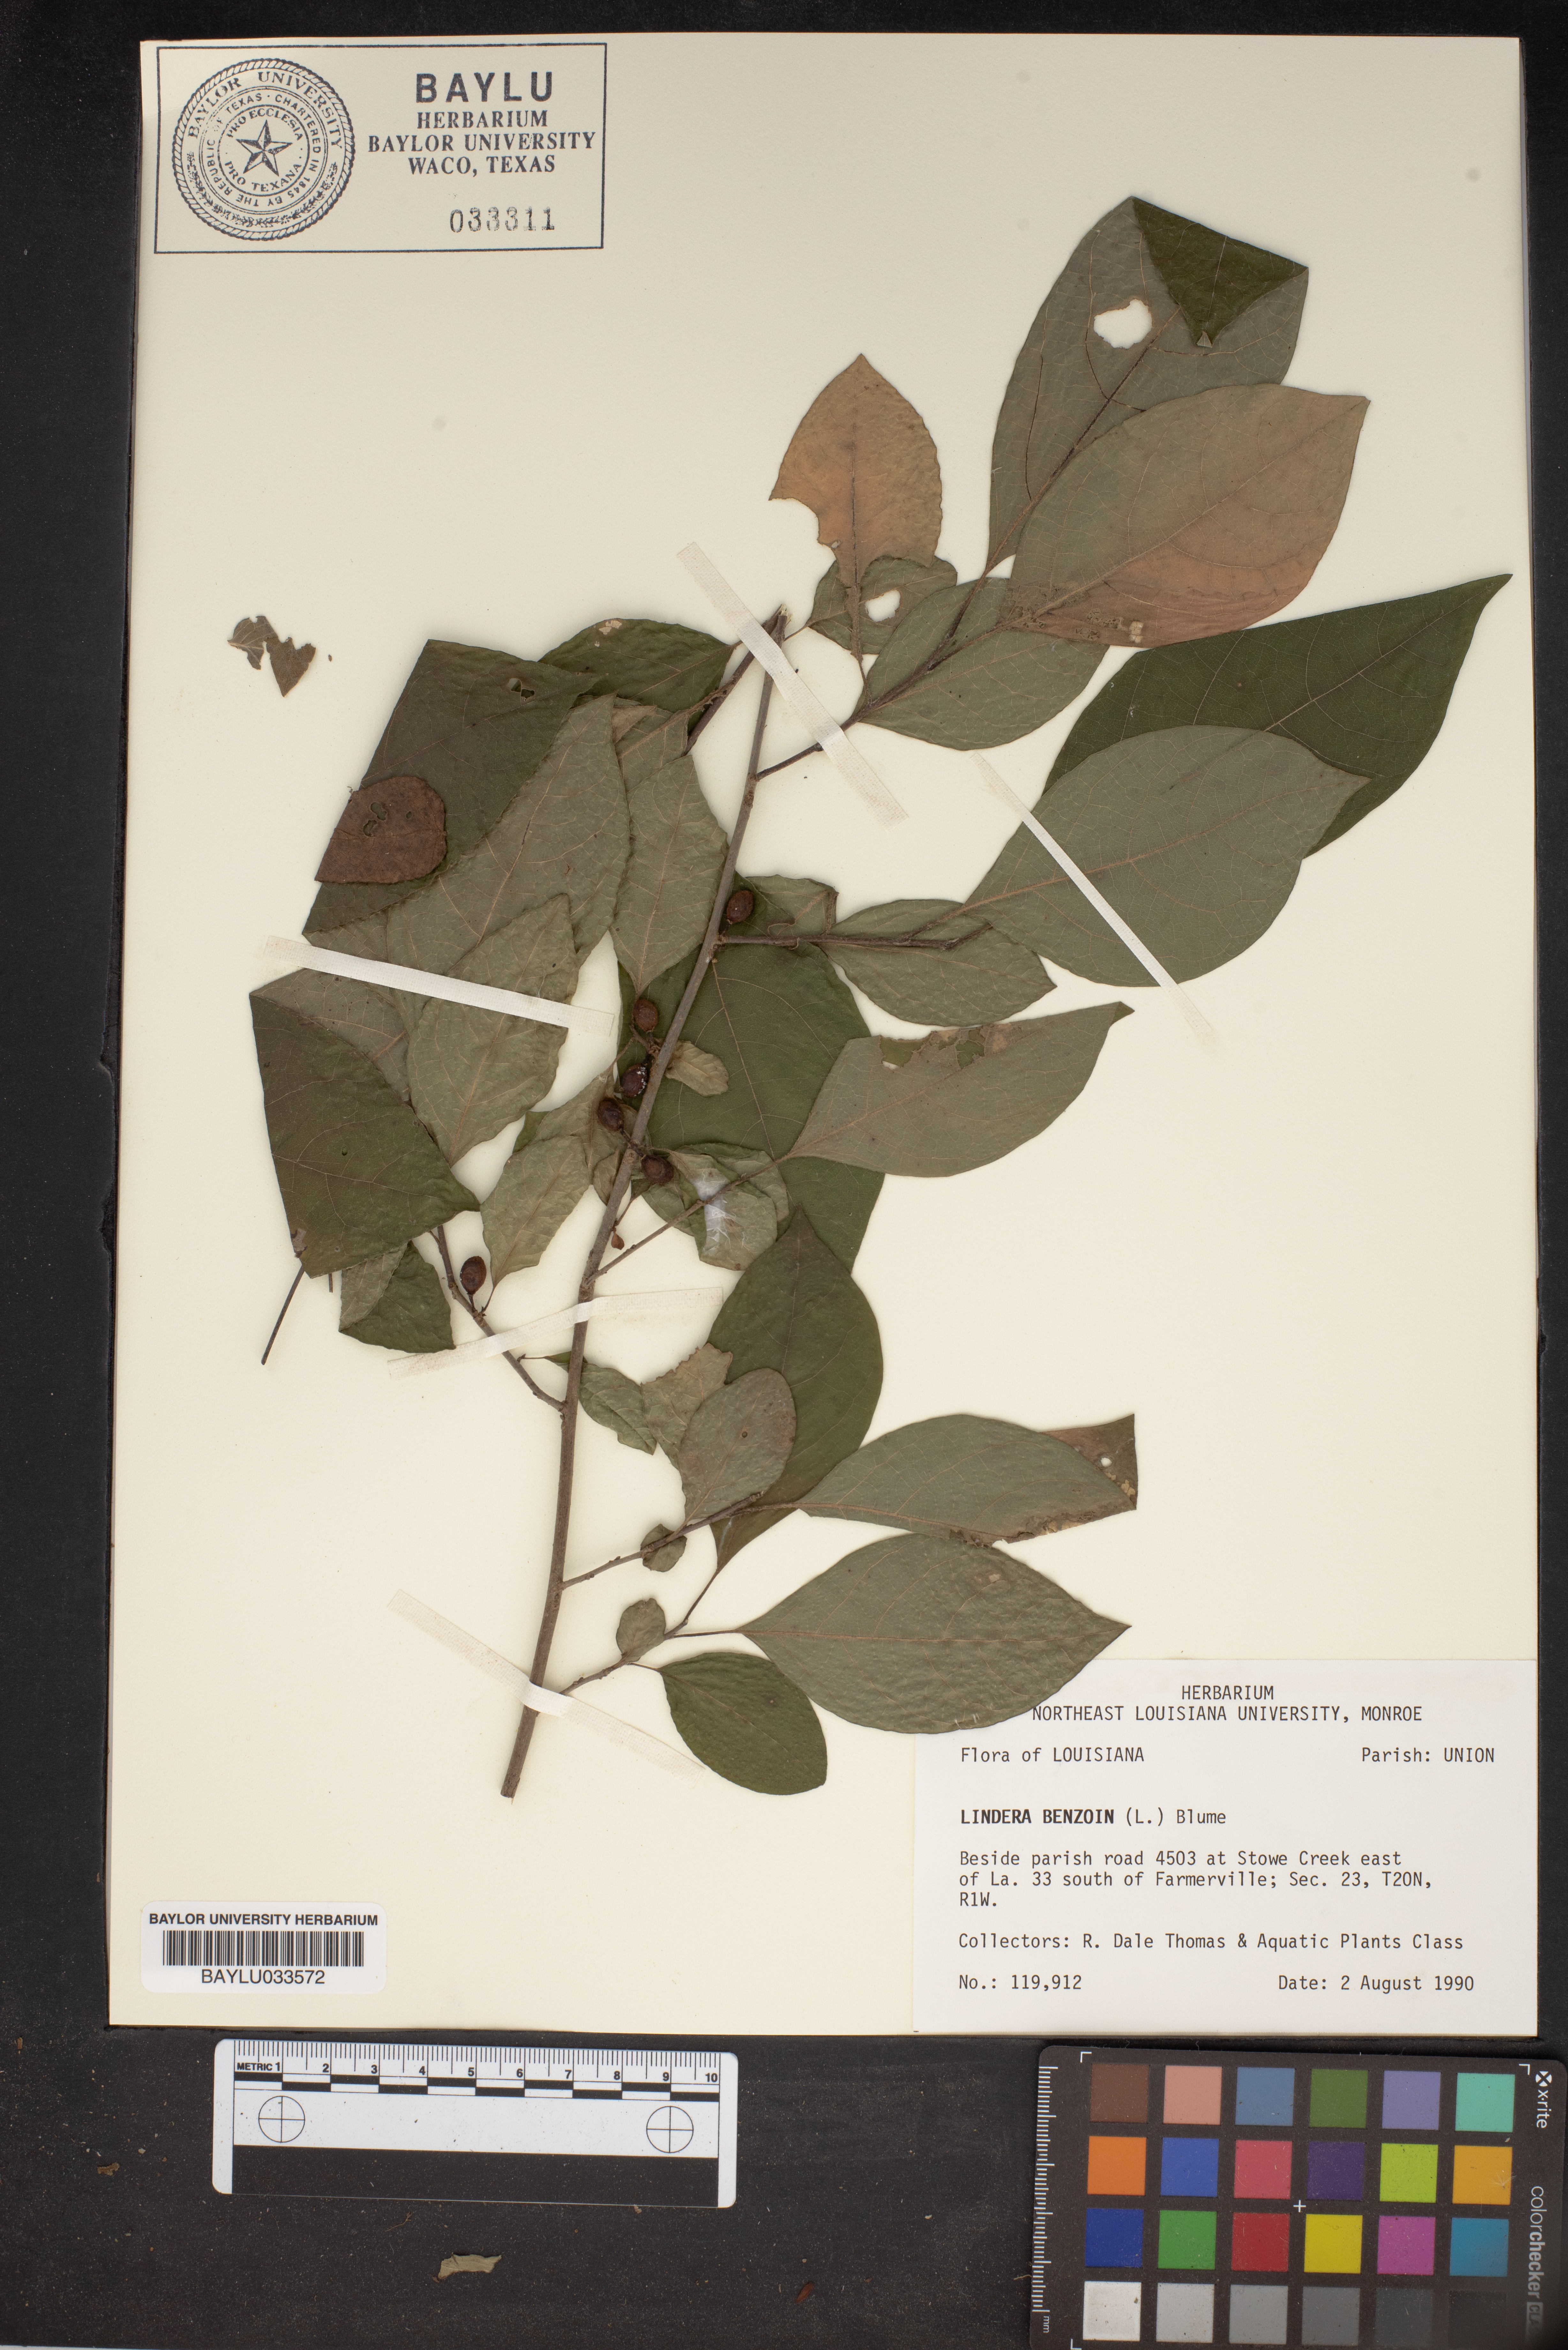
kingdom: Plantae
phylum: Tracheophyta
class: Magnoliopsida
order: Laurales
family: Lauraceae
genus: Lindera
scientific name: Lindera benzoin
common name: Spicebush
